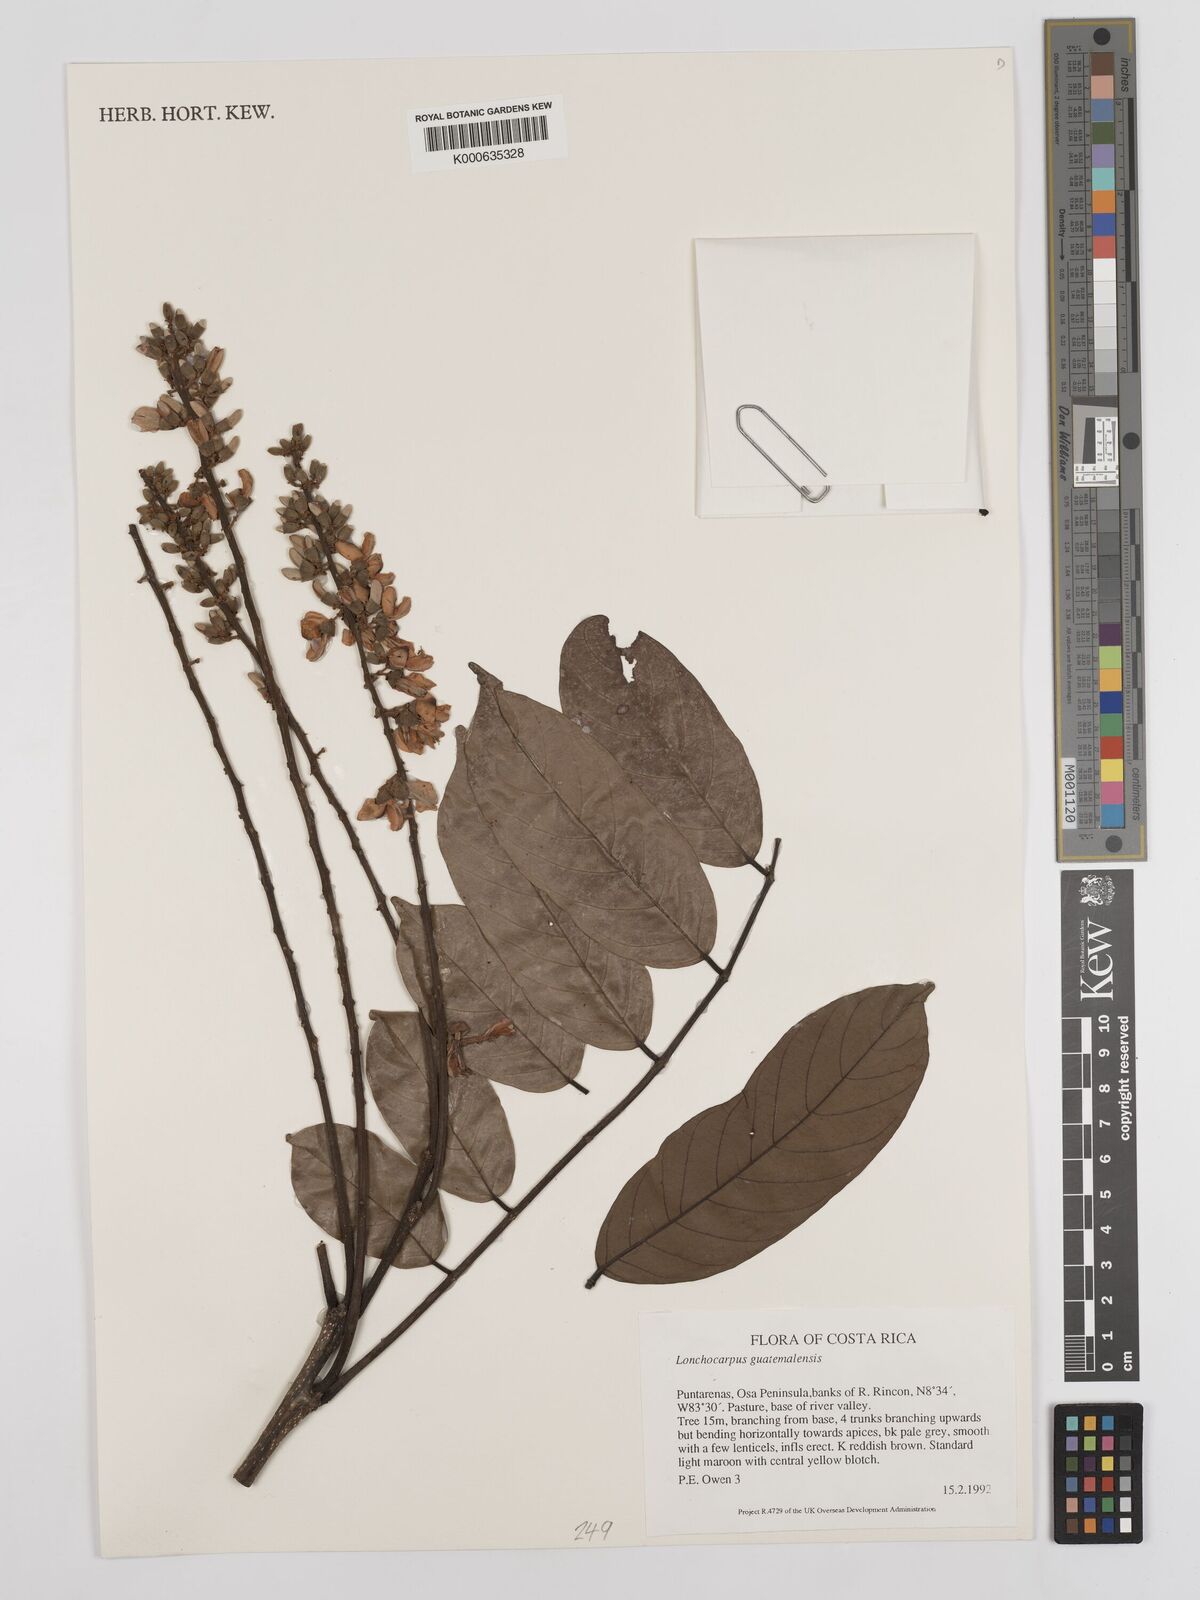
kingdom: Plantae
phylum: Tracheophyta
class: Magnoliopsida
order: Fabales
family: Fabaceae
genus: Lonchocarpus
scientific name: Lonchocarpus guatemalensis
